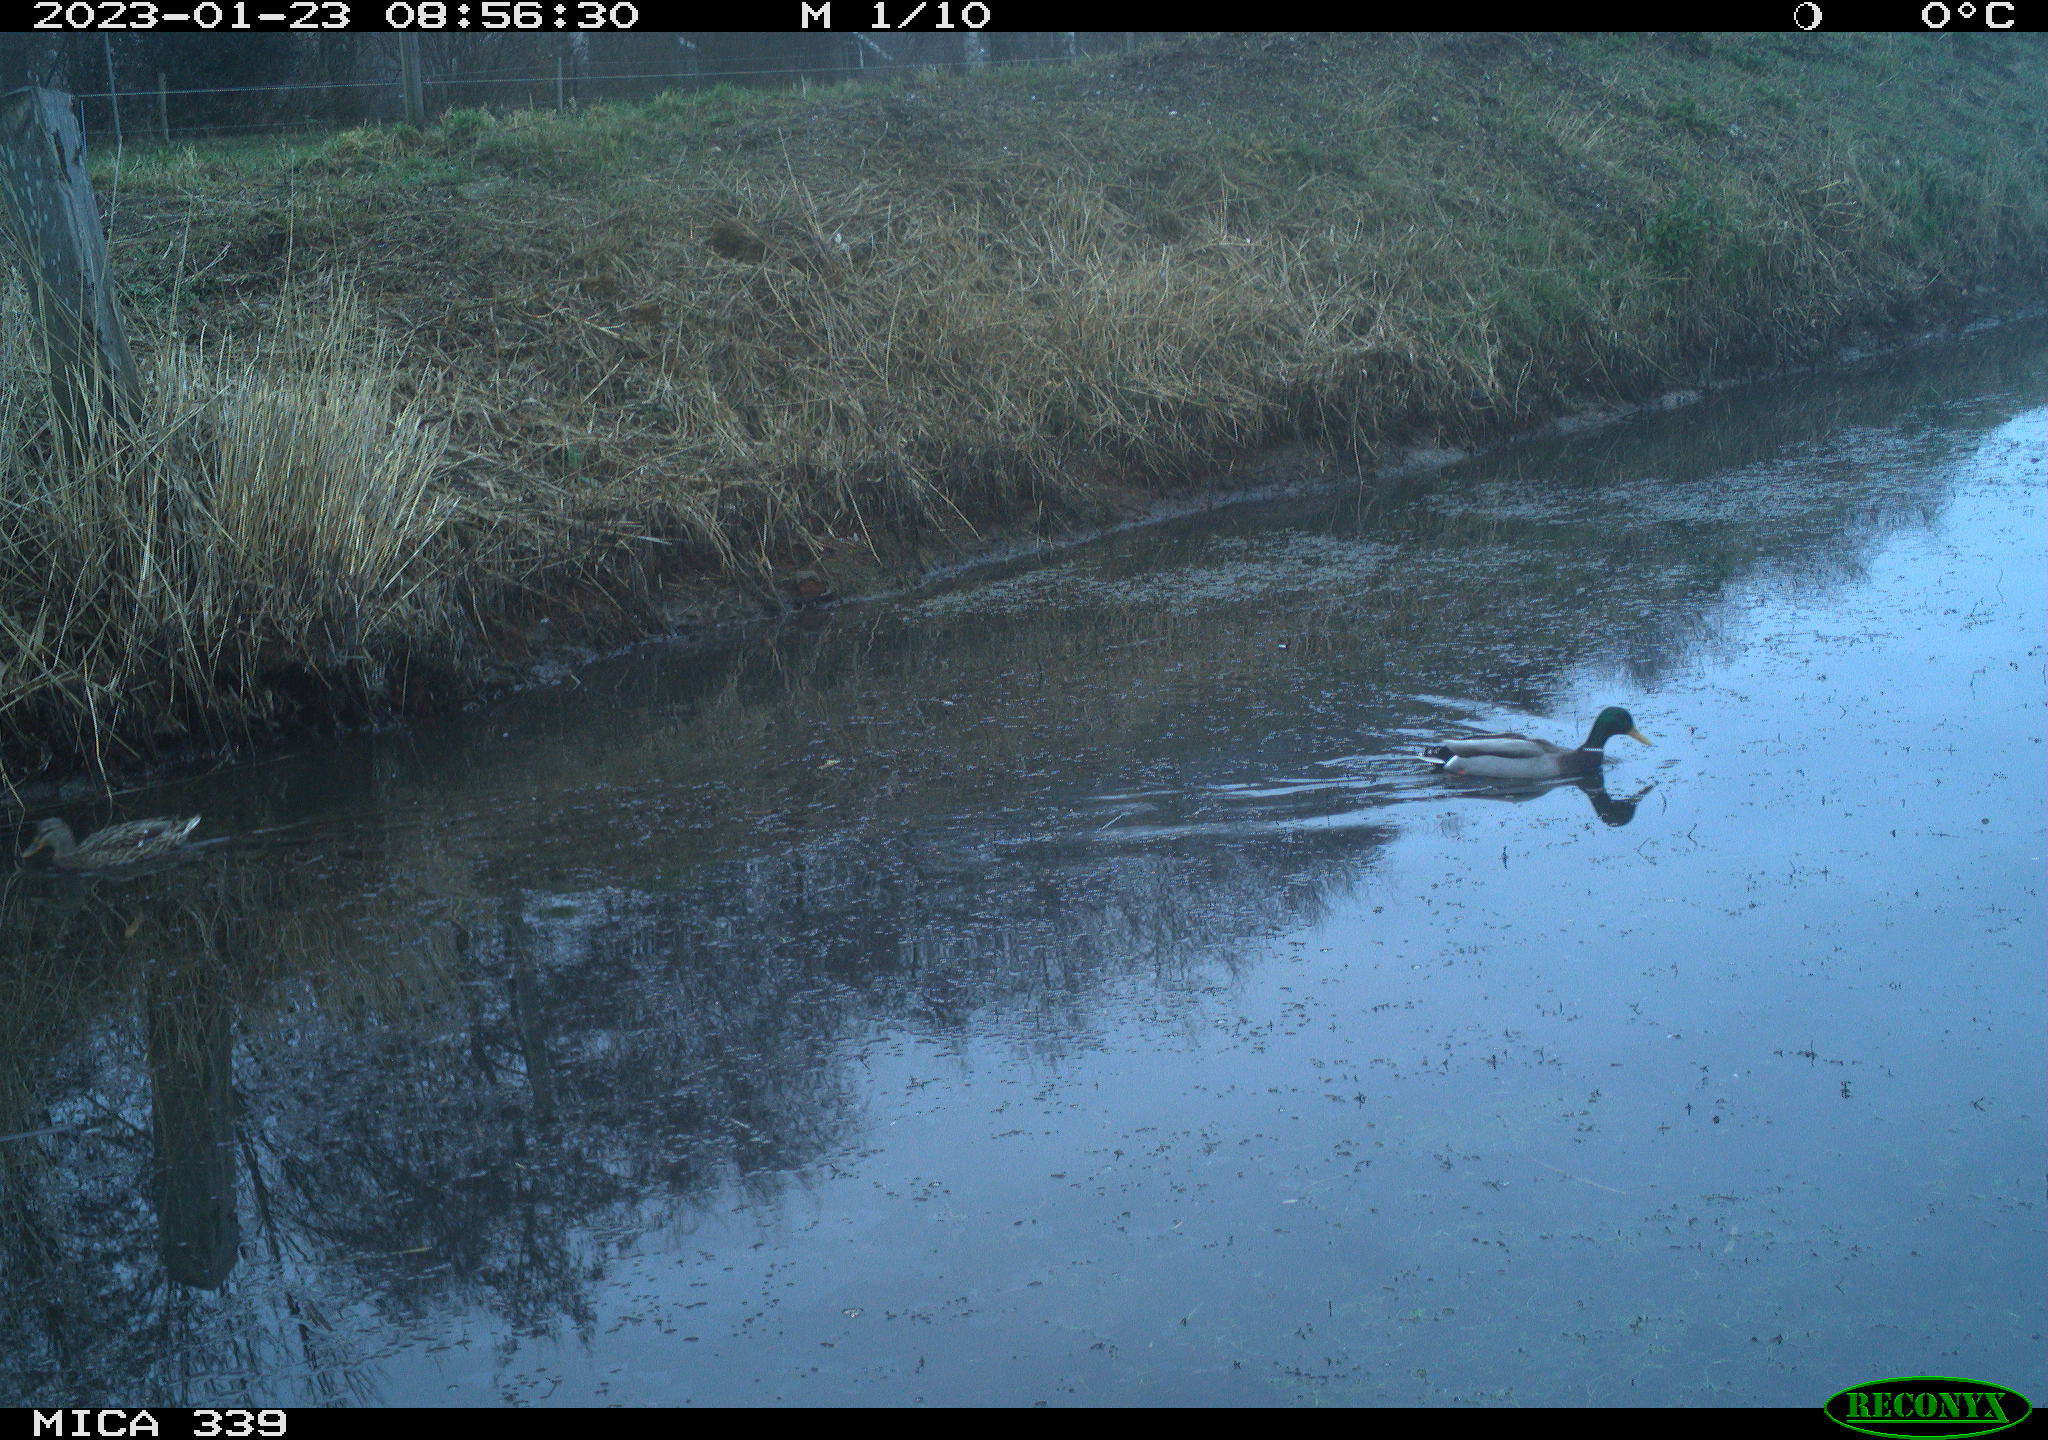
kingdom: Animalia
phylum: Chordata
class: Aves
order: Anseriformes
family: Anatidae
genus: Anas
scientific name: Anas
